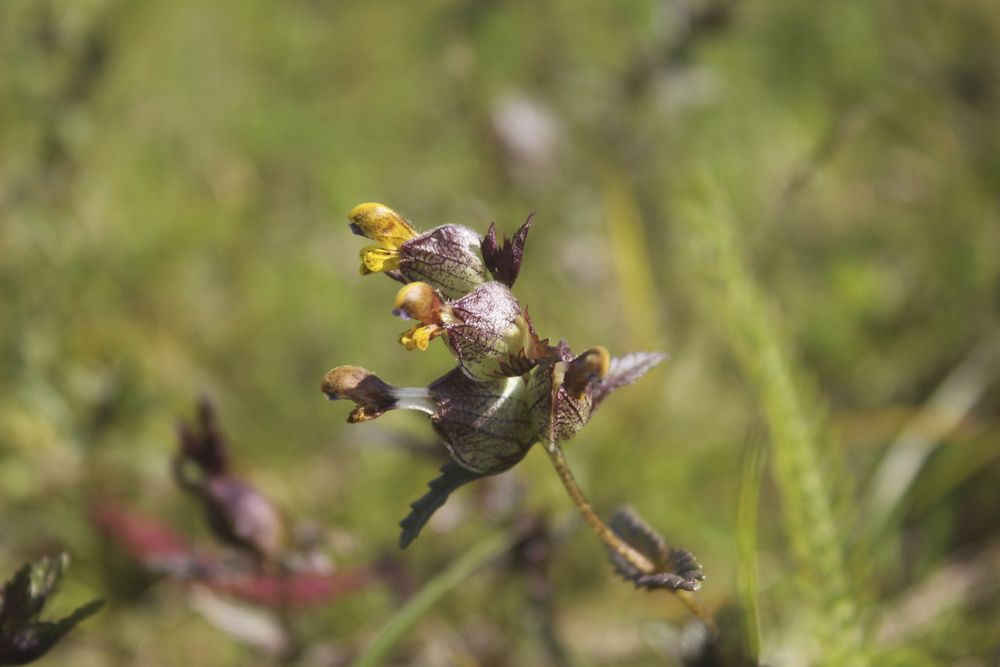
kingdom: Plantae
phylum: Tracheophyta
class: Magnoliopsida
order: Lamiales
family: Orobanchaceae
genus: Rhinanthus
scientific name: Rhinanthus minor
